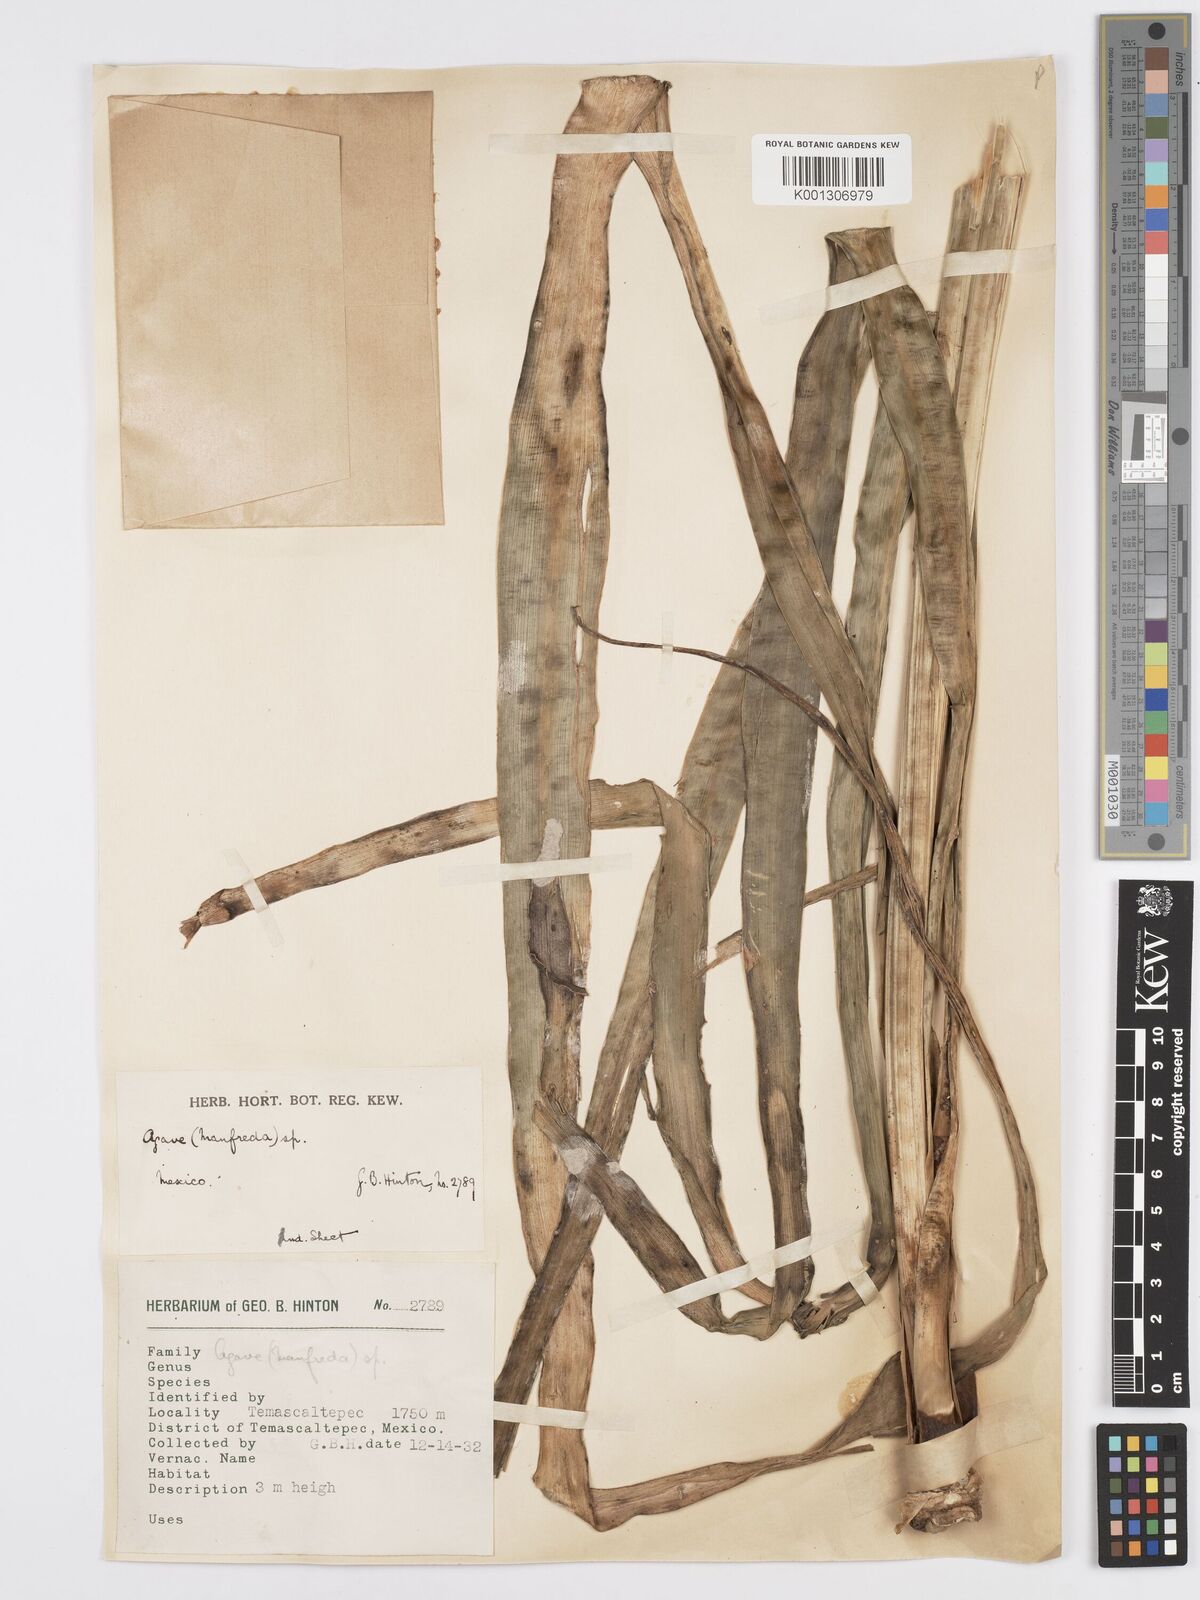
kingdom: Plantae
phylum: Tracheophyta
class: Liliopsida
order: Asparagales
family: Asparagaceae
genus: Agave
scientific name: Agave Manfreda spec
